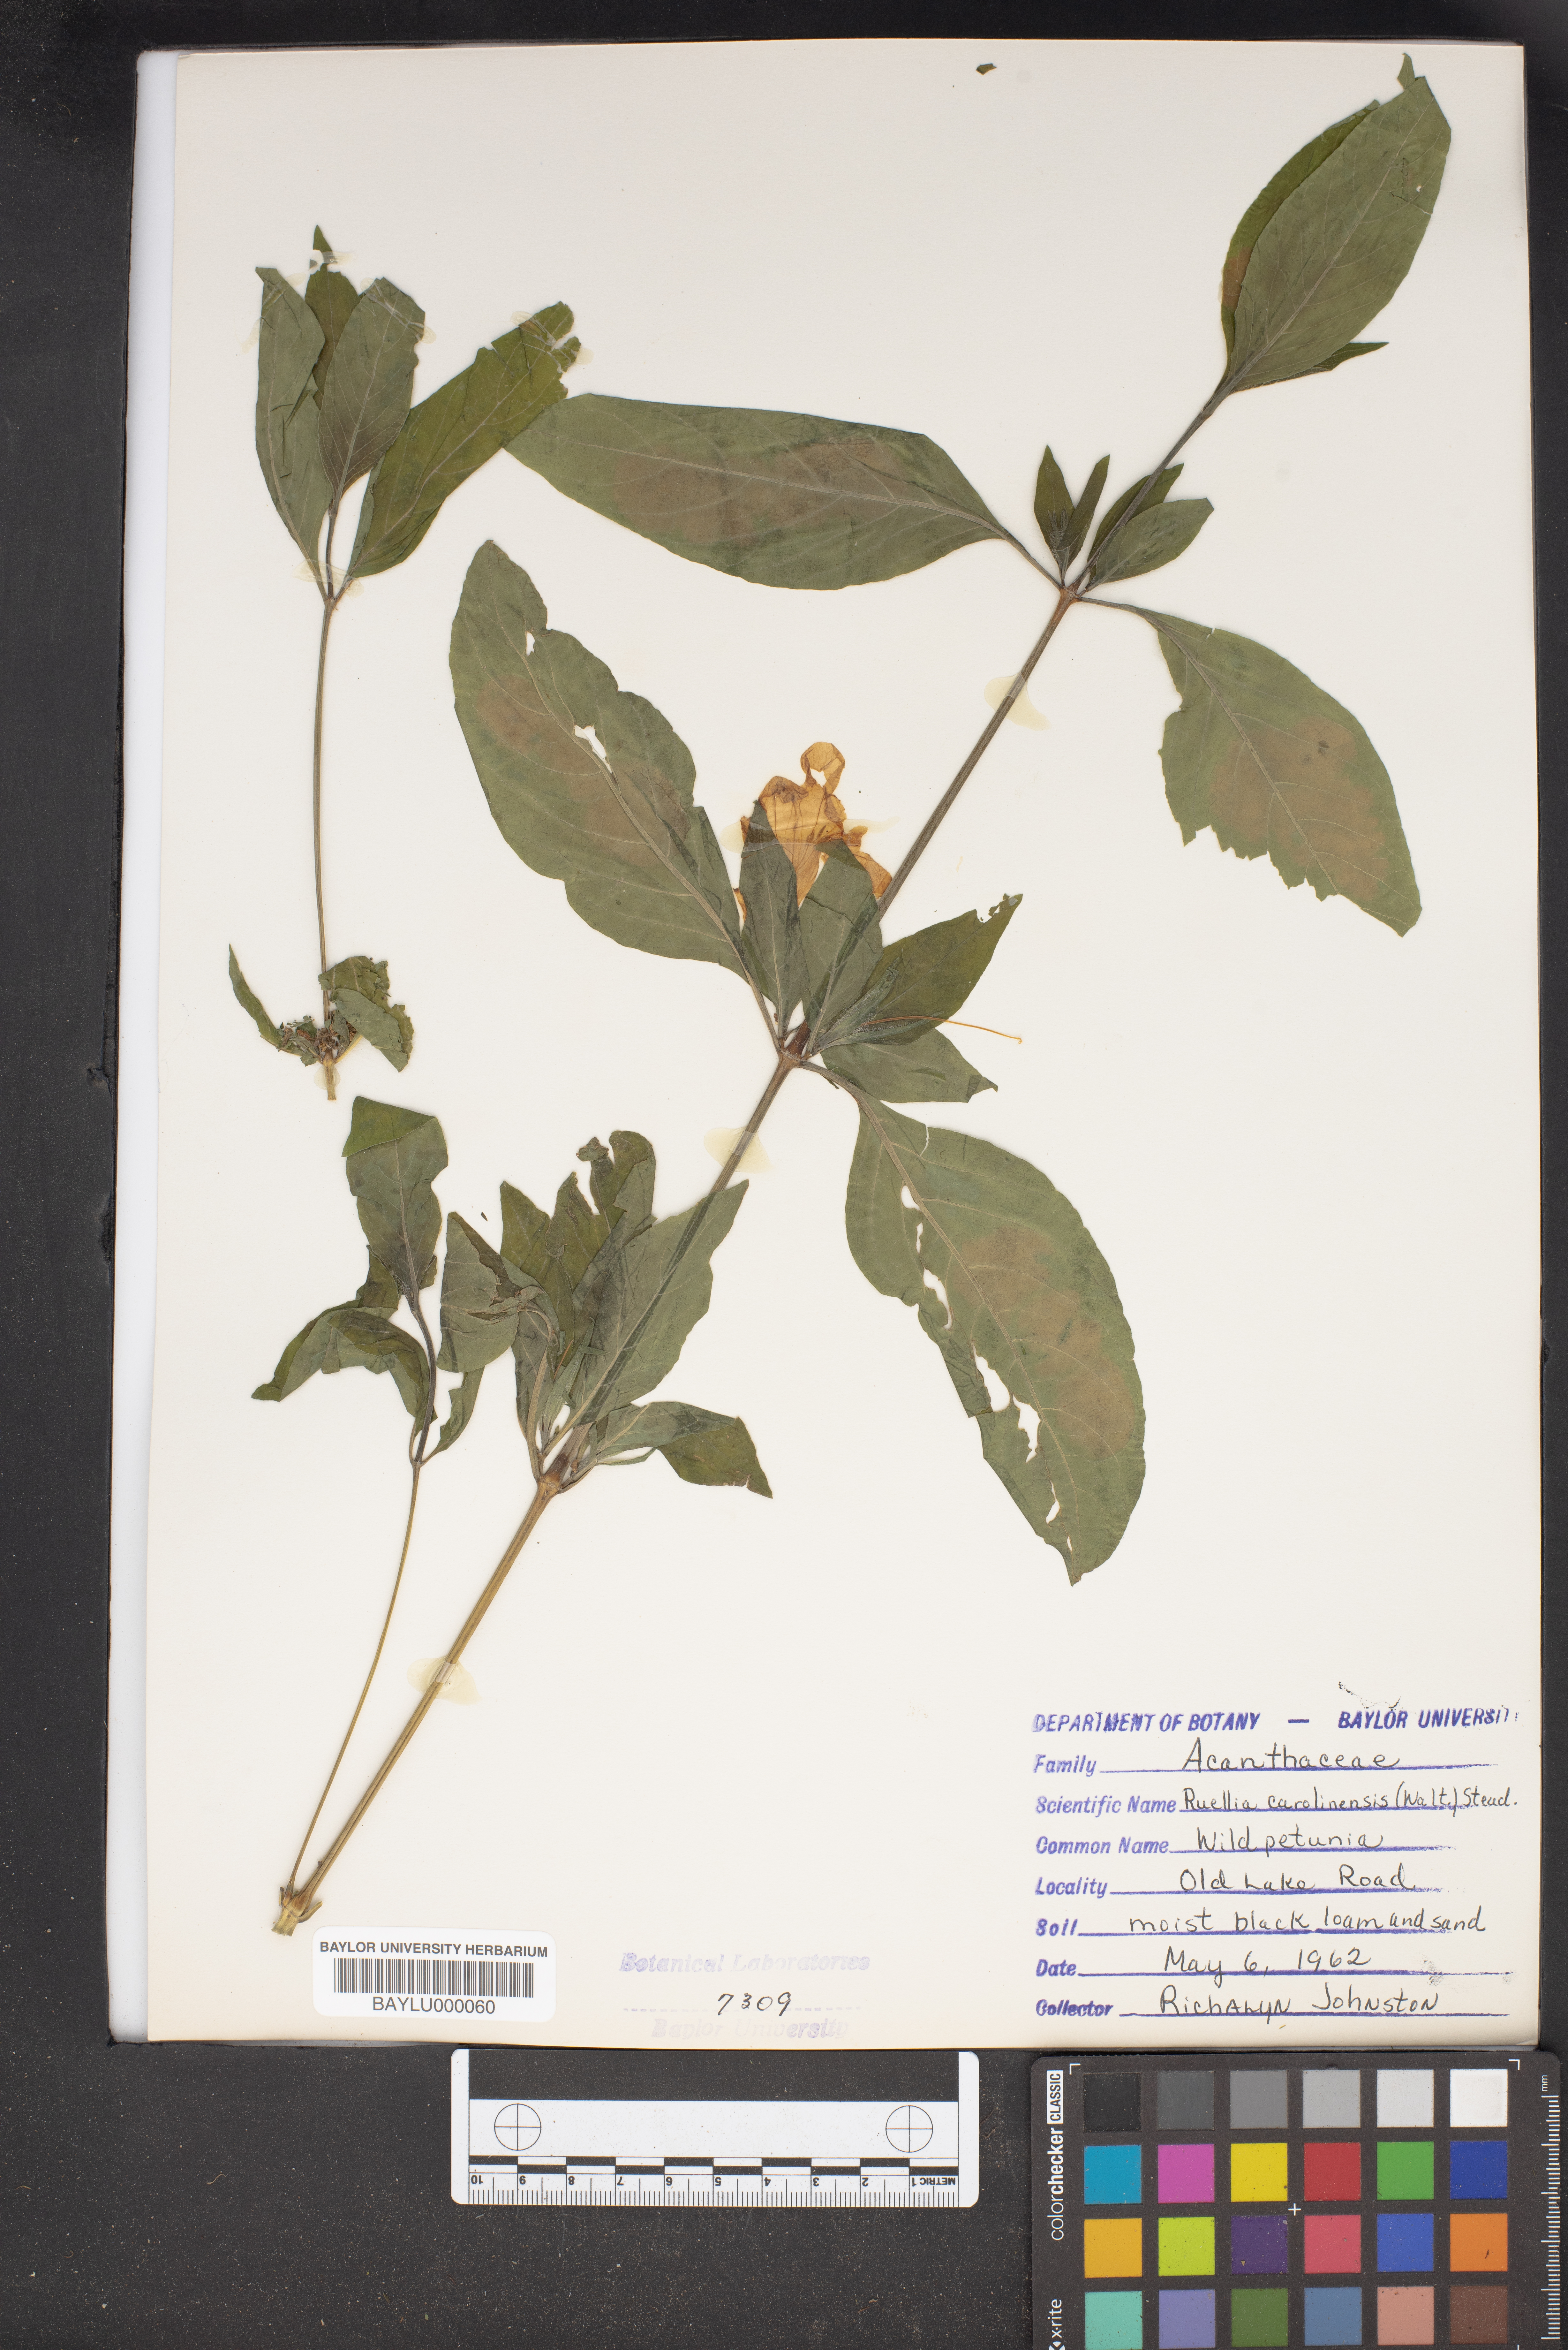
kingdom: Plantae
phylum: Tracheophyta
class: Magnoliopsida
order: Lamiales
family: Acanthaceae
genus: Ruellia
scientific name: Ruellia caroliniensis
